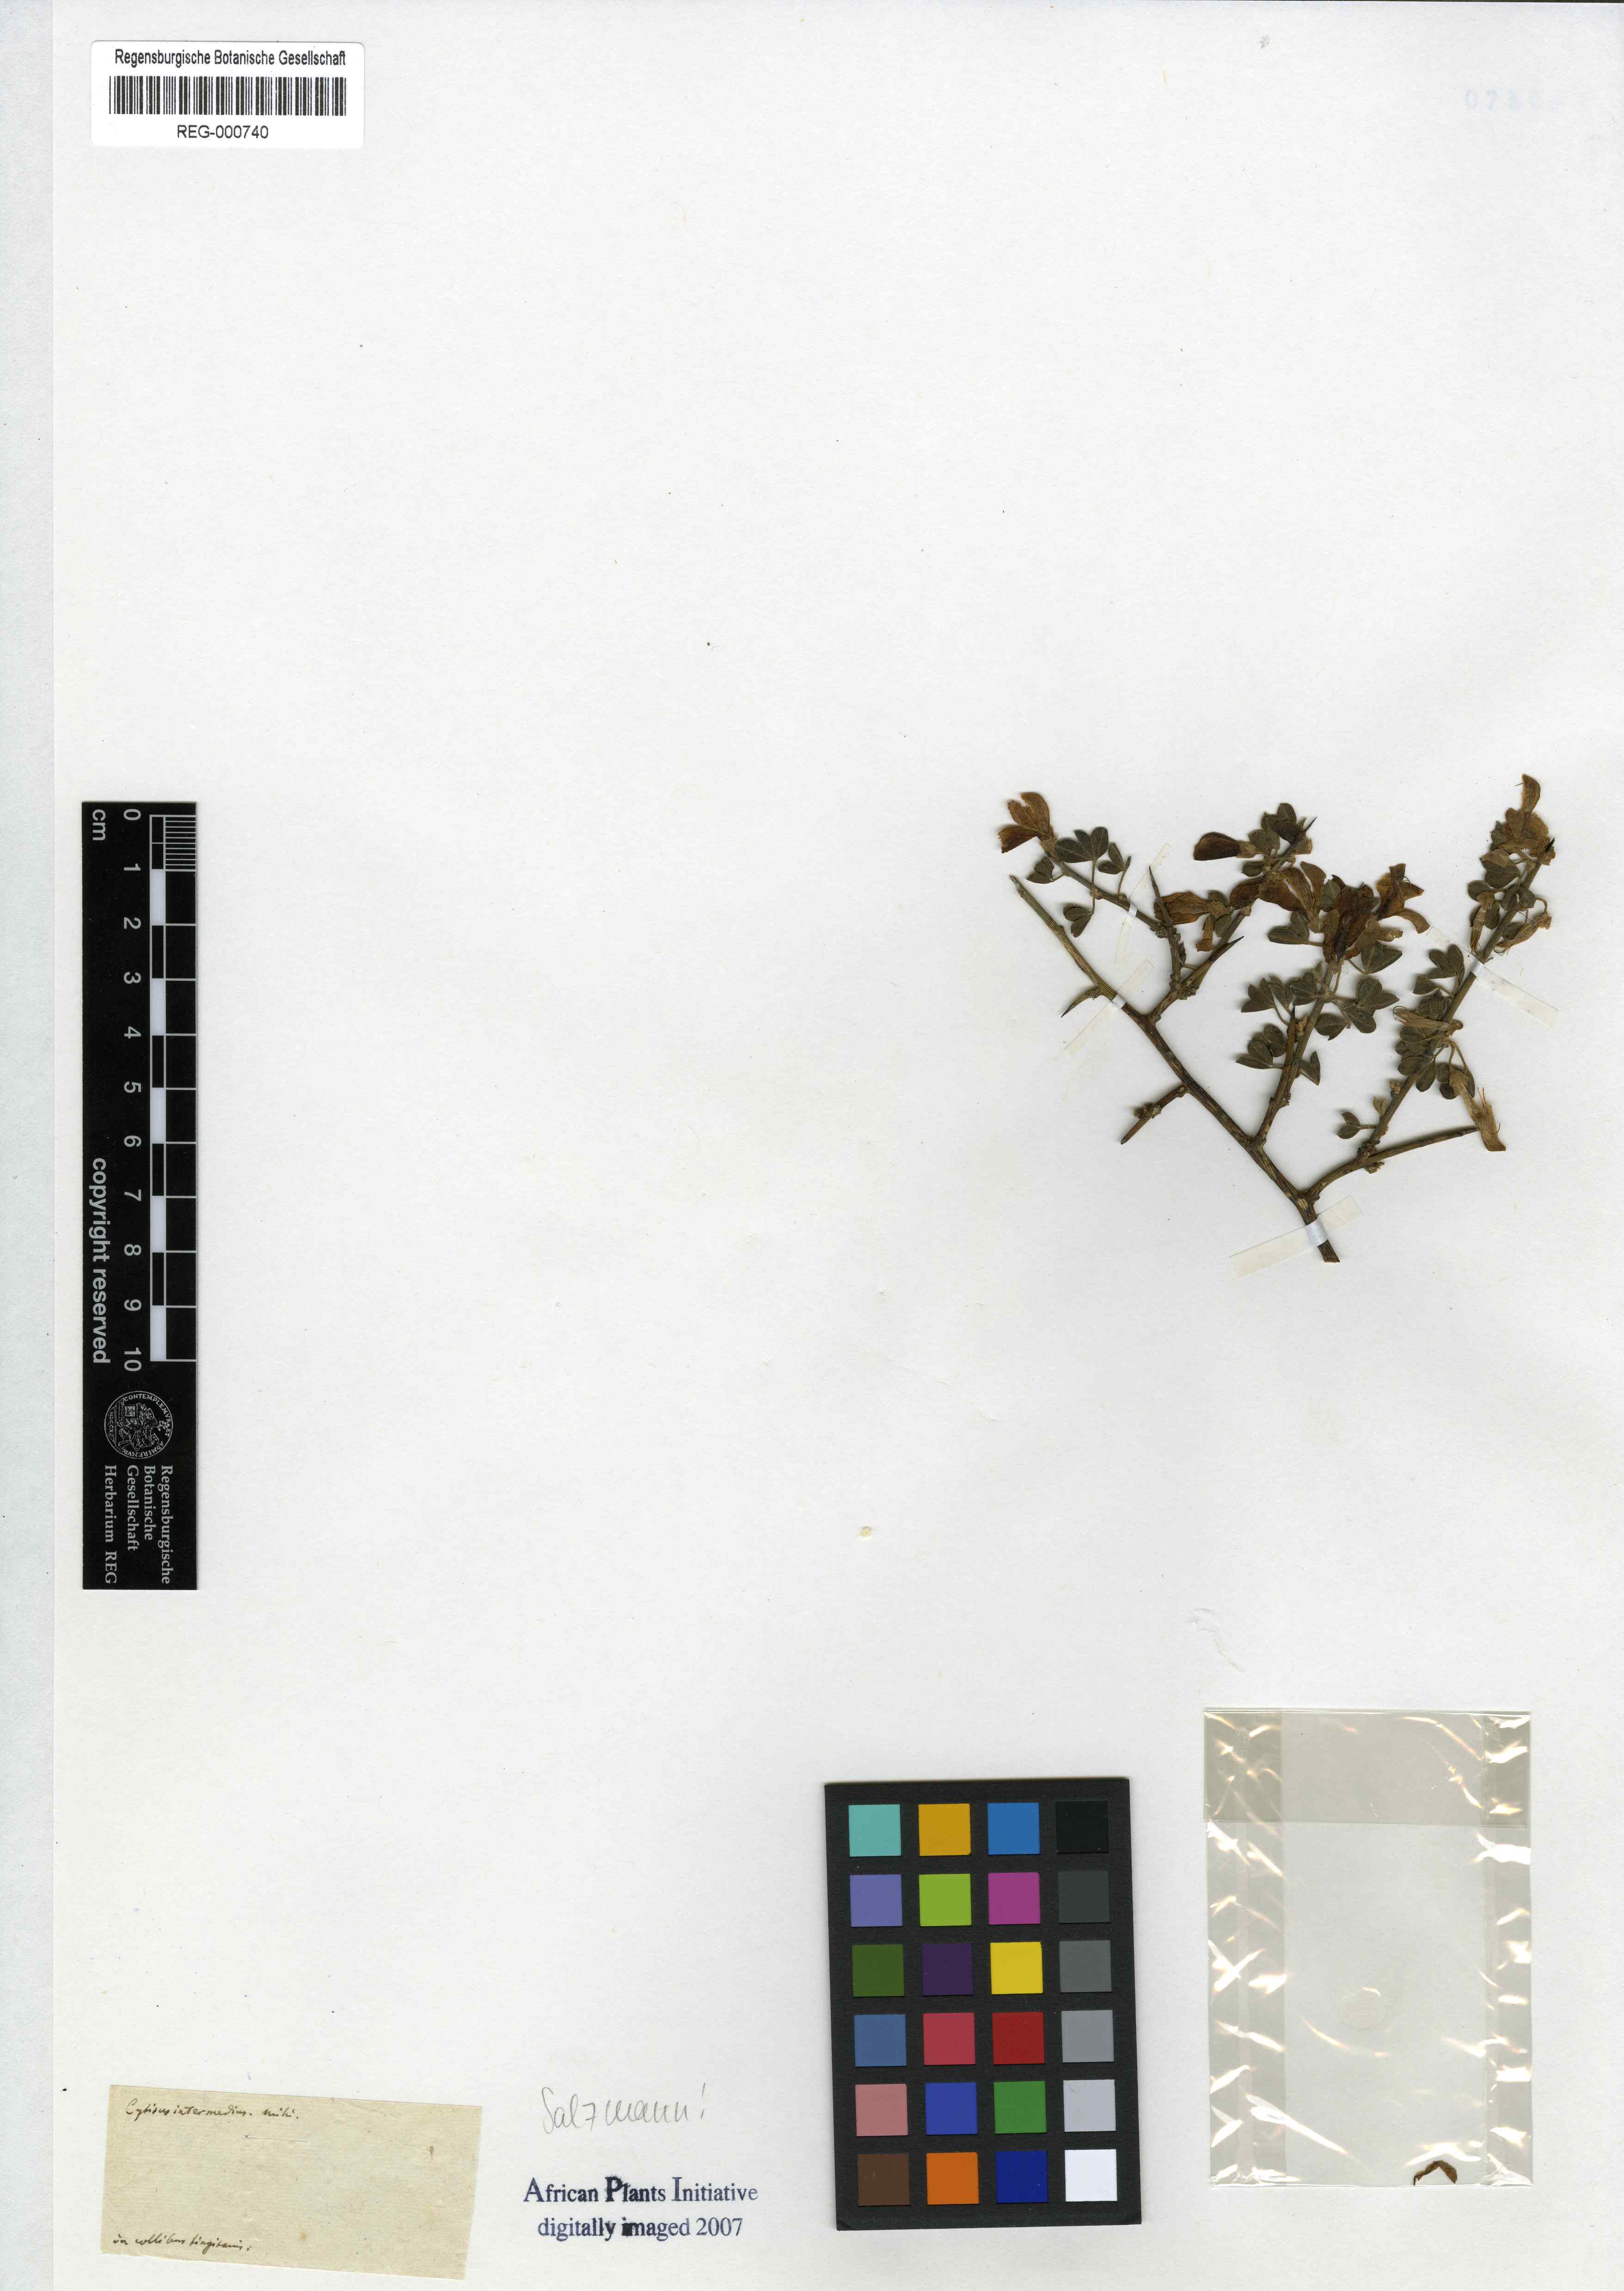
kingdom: Plantae
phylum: Tracheophyta
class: Magnoliopsida
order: Fabales
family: Fabaceae
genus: Calicotome
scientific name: Calicotome infesta
